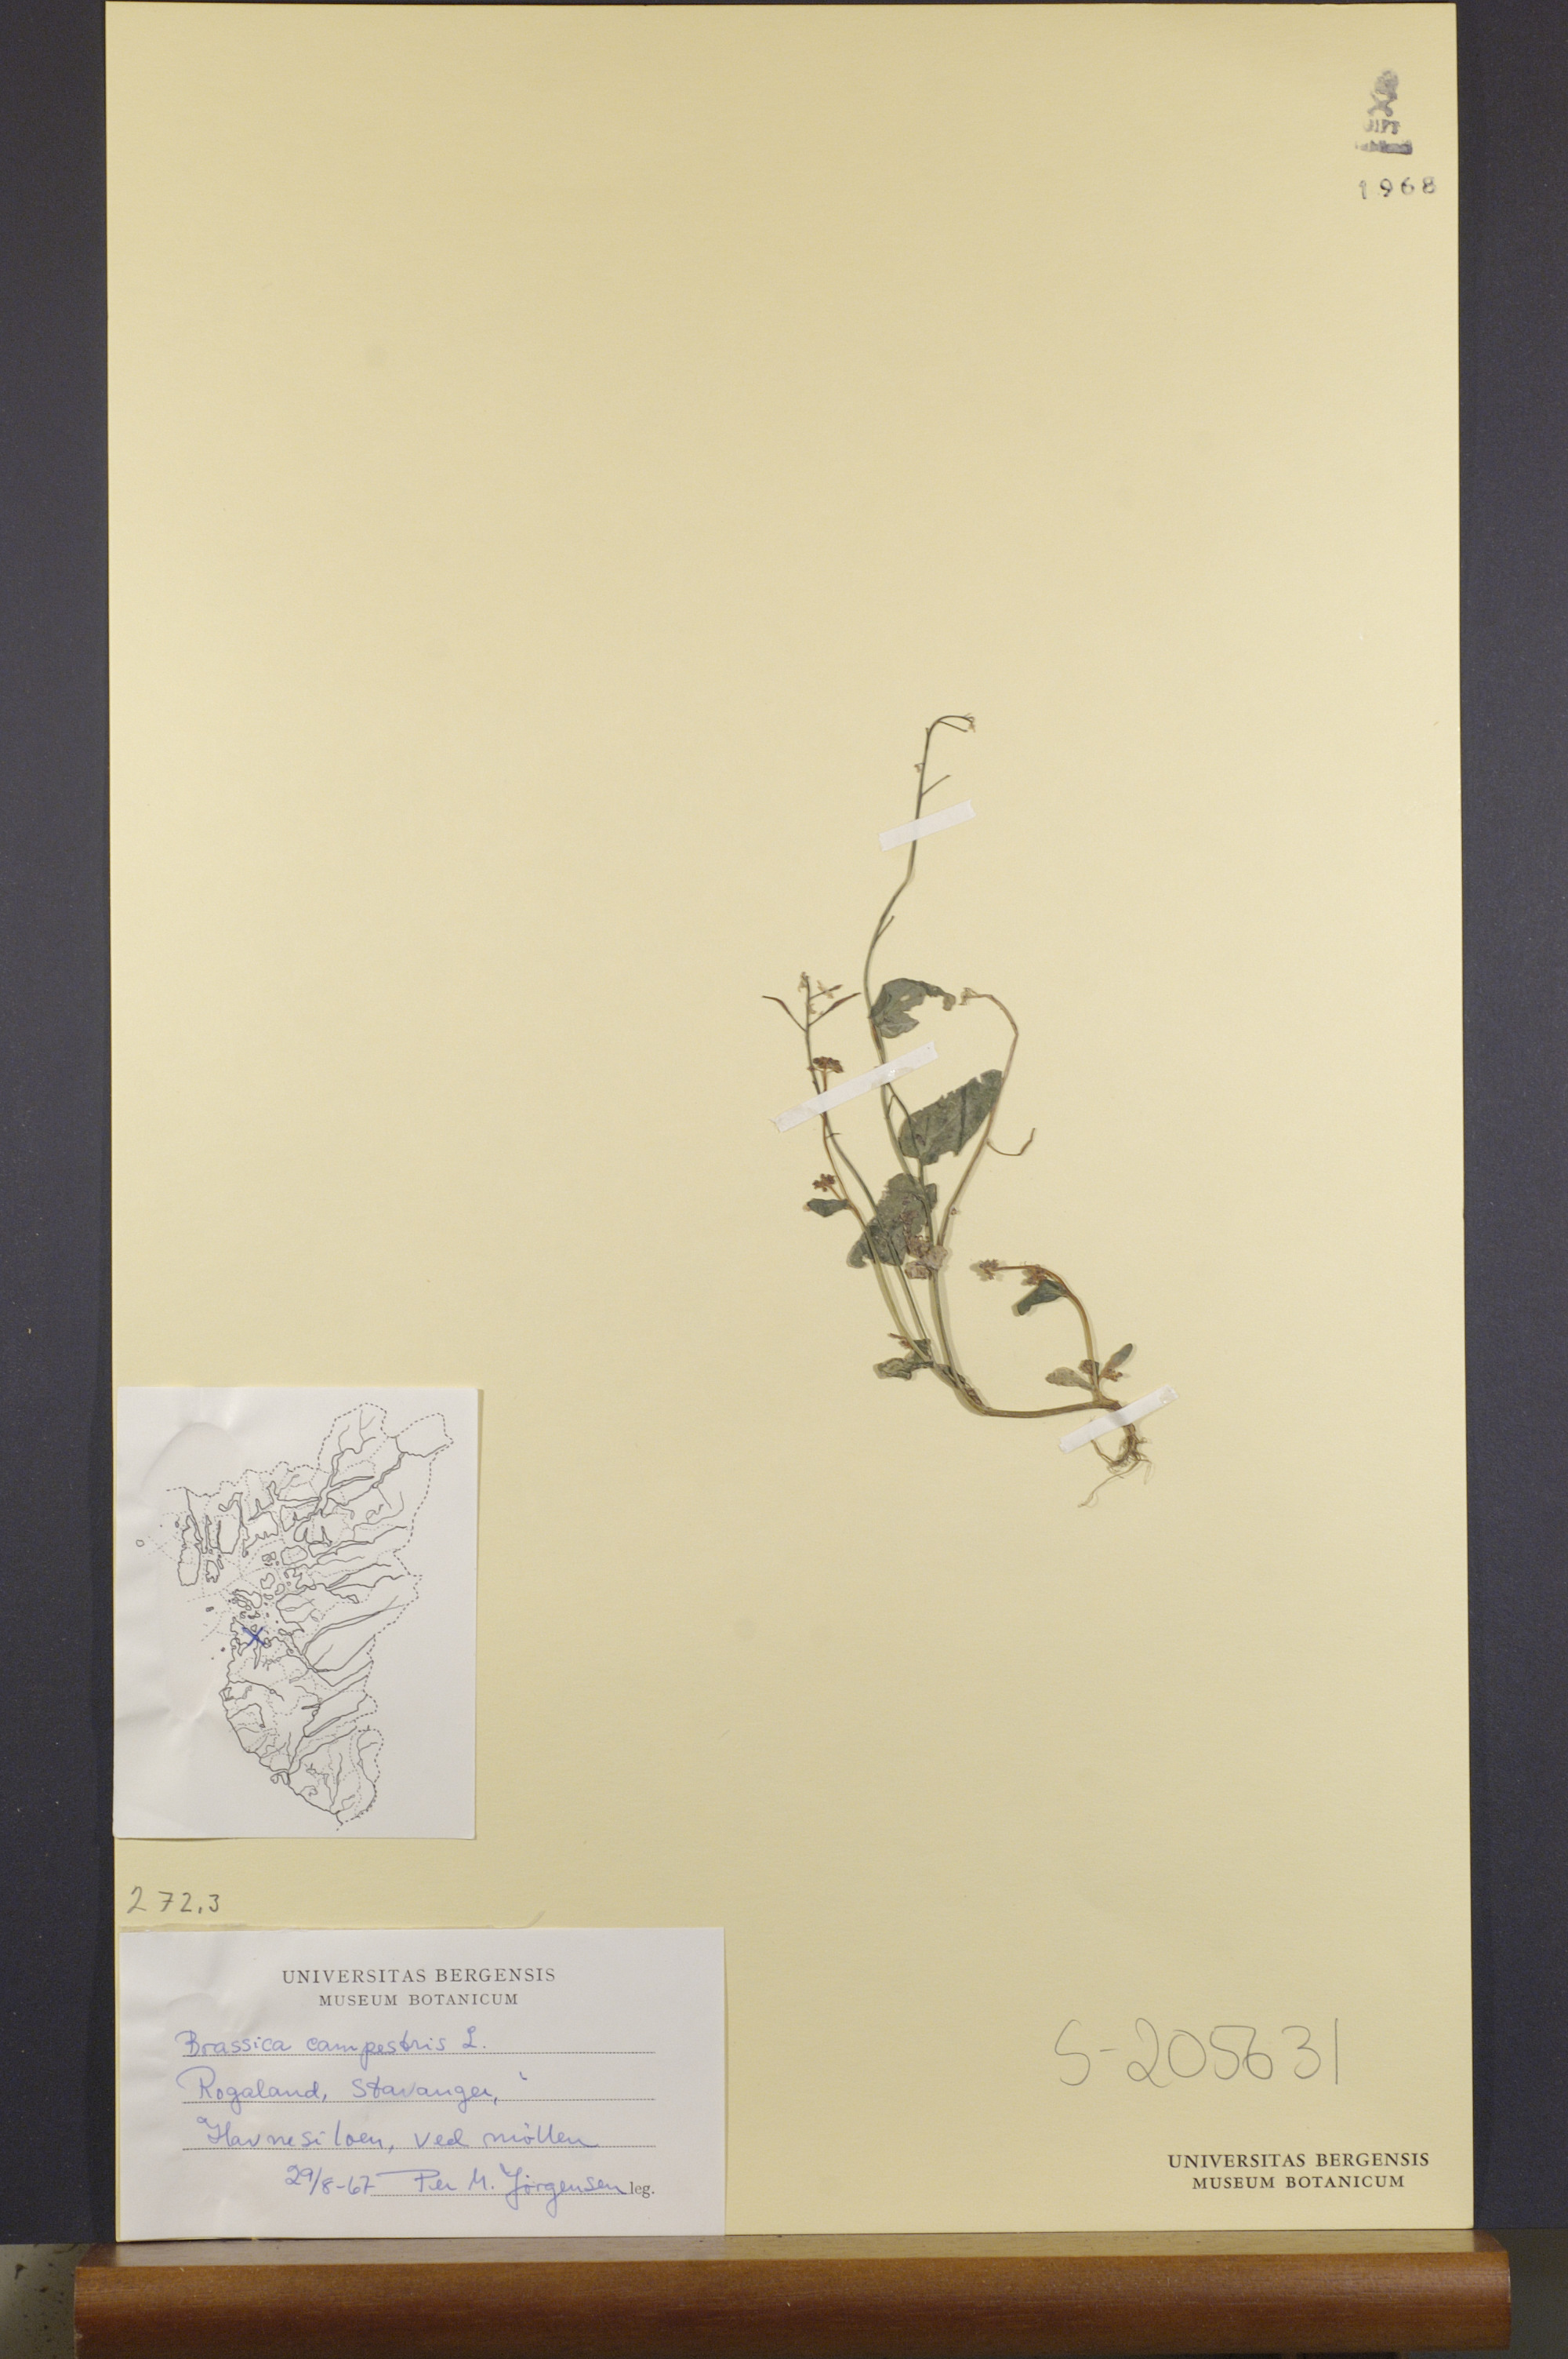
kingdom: Plantae
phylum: Tracheophyta
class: Magnoliopsida
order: Brassicales
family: Brassicaceae
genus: Brassica
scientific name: Brassica rapa
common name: Field mustard
